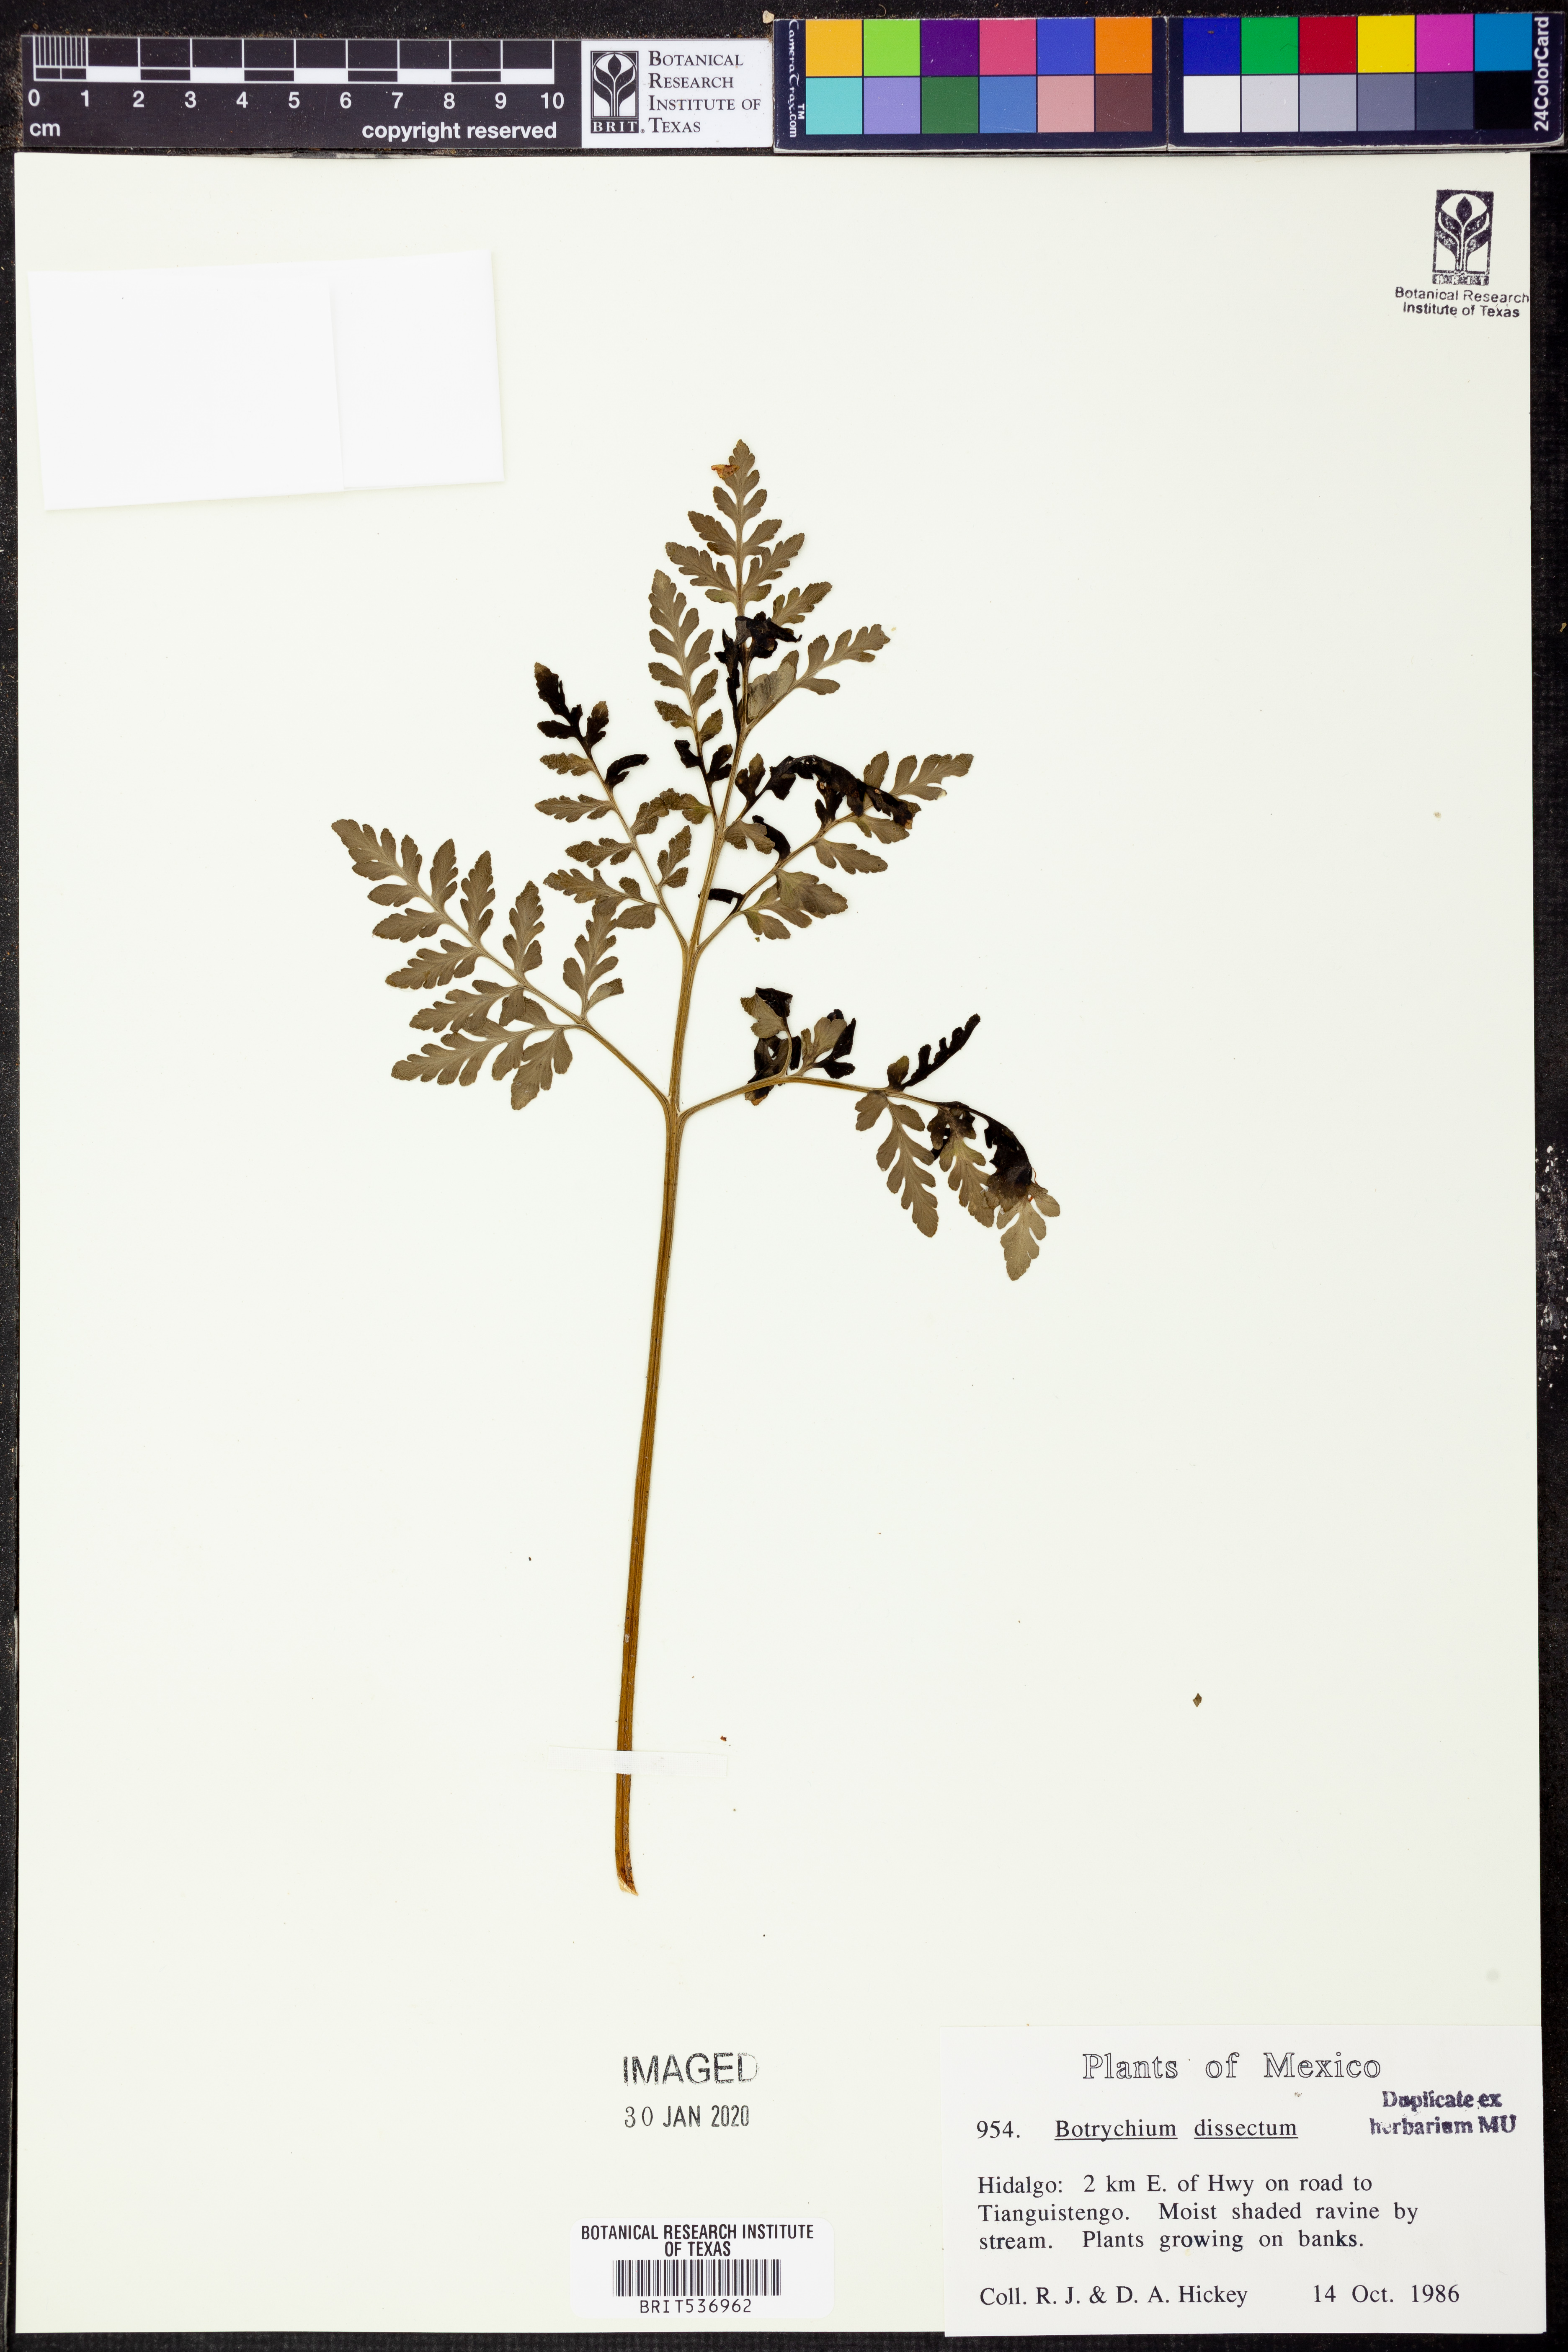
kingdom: Plantae
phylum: Tracheophyta
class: Polypodiopsida
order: Ophioglossales
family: Ophioglossaceae
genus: Sceptridium
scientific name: Sceptridium dissectum
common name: Cut-leaved grapefern
